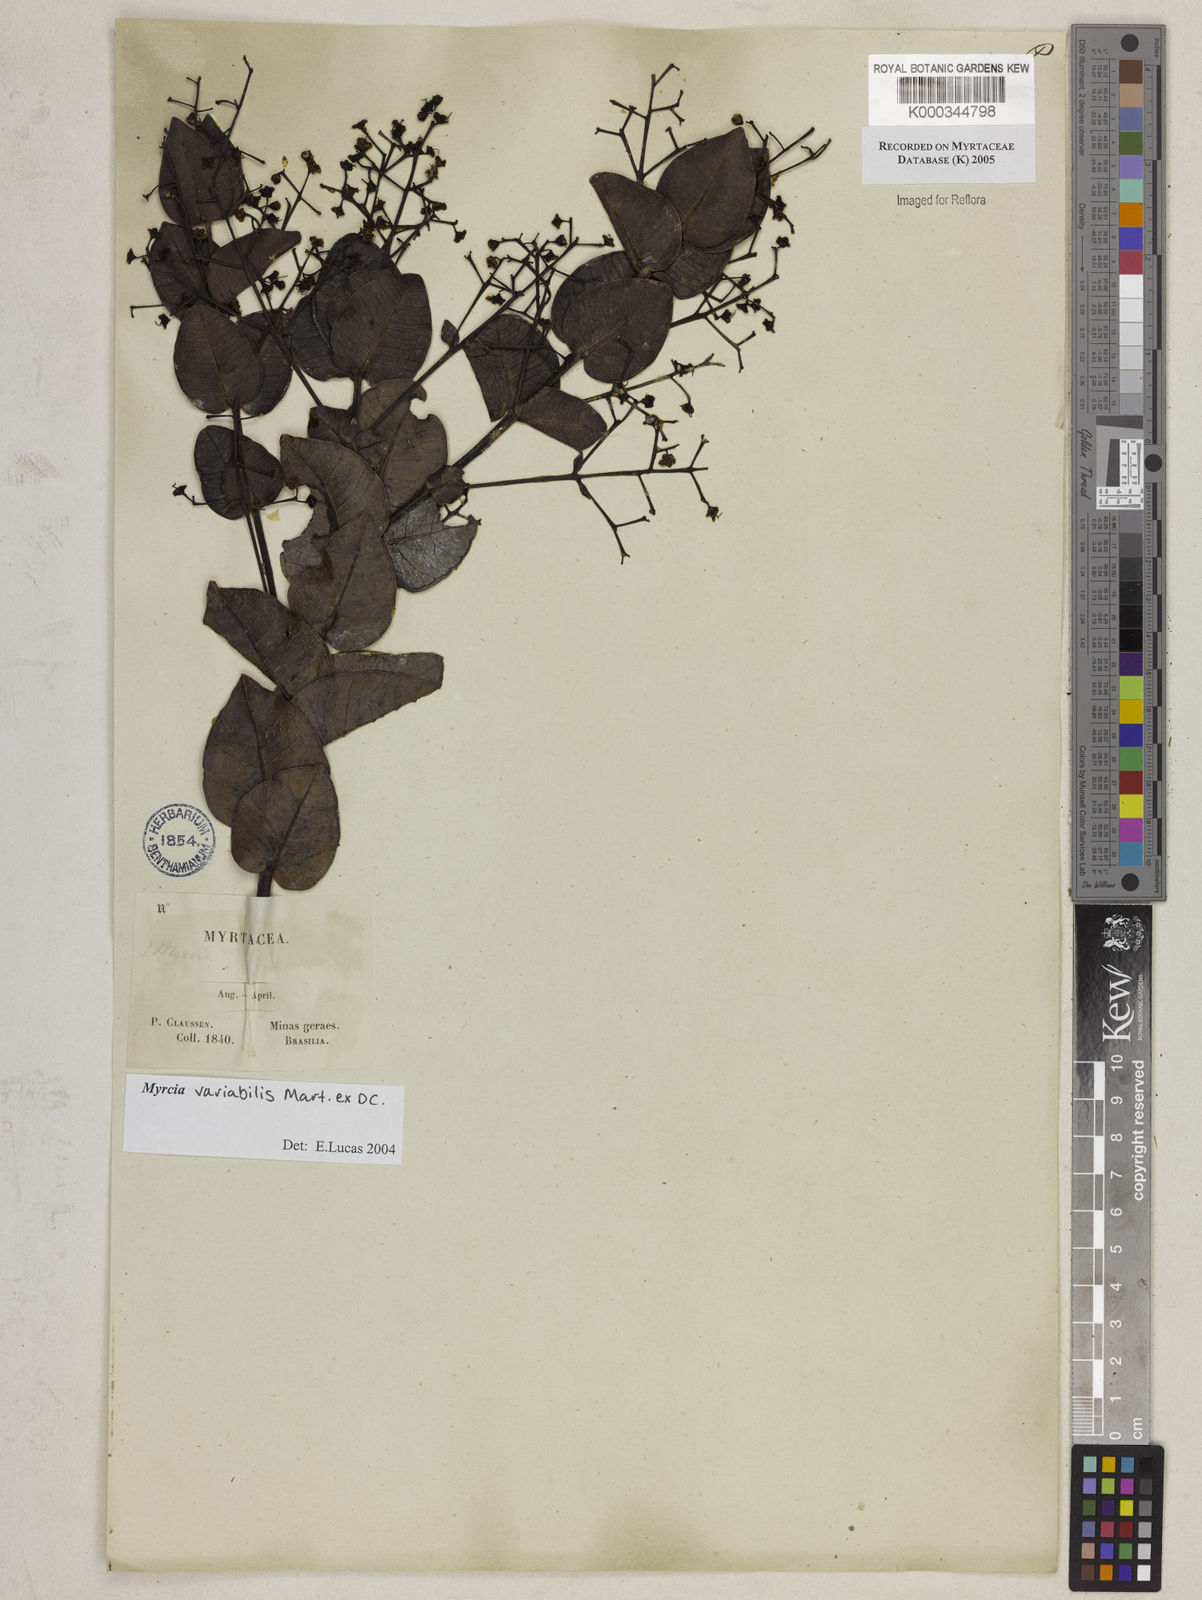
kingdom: Plantae
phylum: Tracheophyta
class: Magnoliopsida
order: Myrtales
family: Myrtaceae
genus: Myrcia
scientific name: Myrcia variabilis
